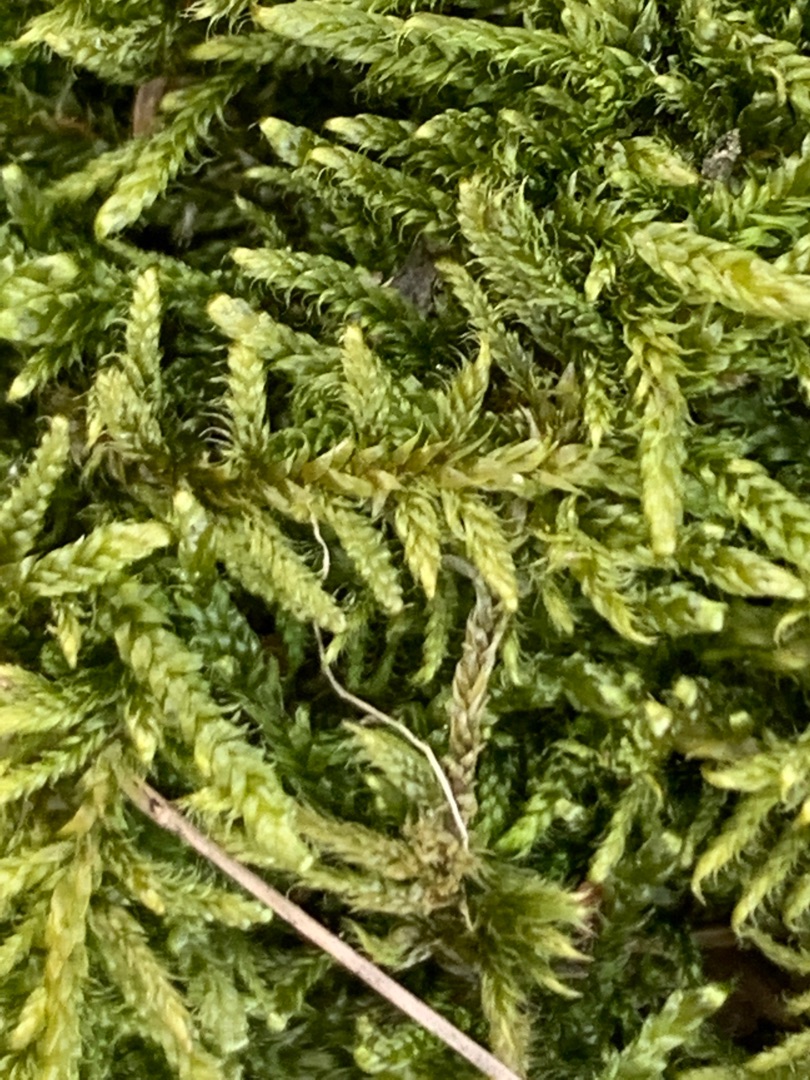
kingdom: Plantae
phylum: Bryophyta
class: Bryopsida
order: Hypnales
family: Hypnaceae
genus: Hypnum
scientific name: Hypnum cupressiforme
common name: Almindelig cypresmos
